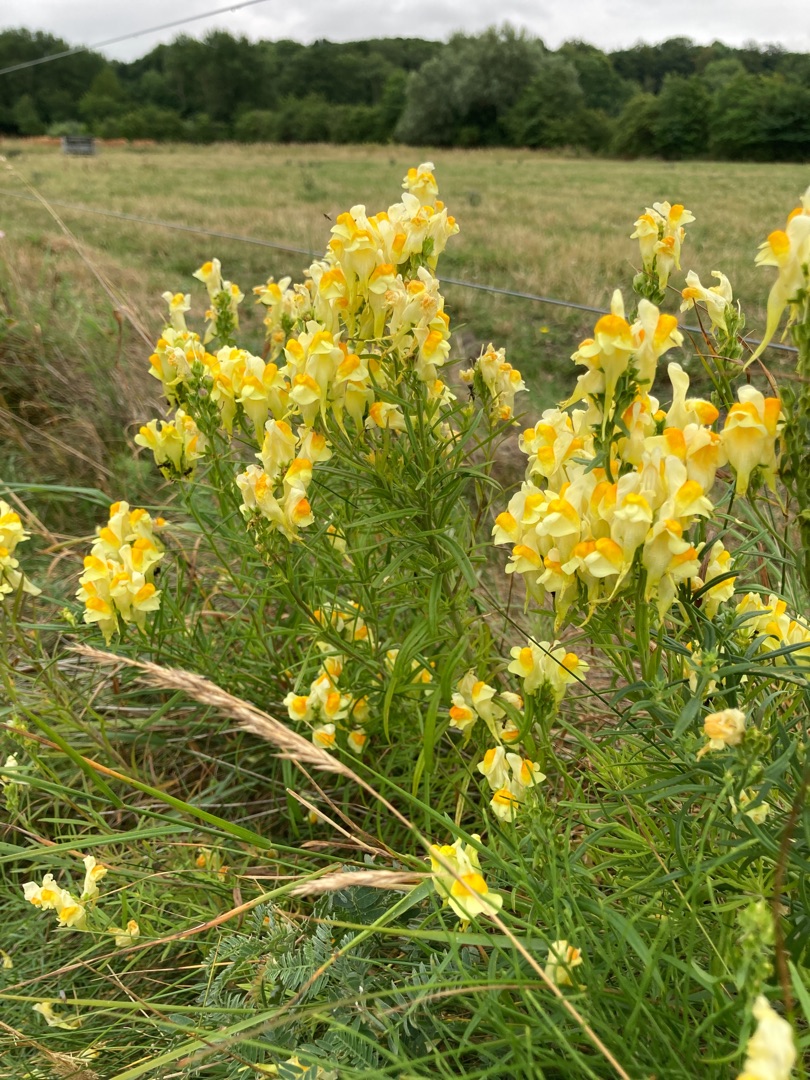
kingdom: Plantae
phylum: Tracheophyta
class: Magnoliopsida
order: Lamiales
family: Plantaginaceae
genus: Linaria
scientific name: Linaria vulgaris
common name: Almindelig torskemund
